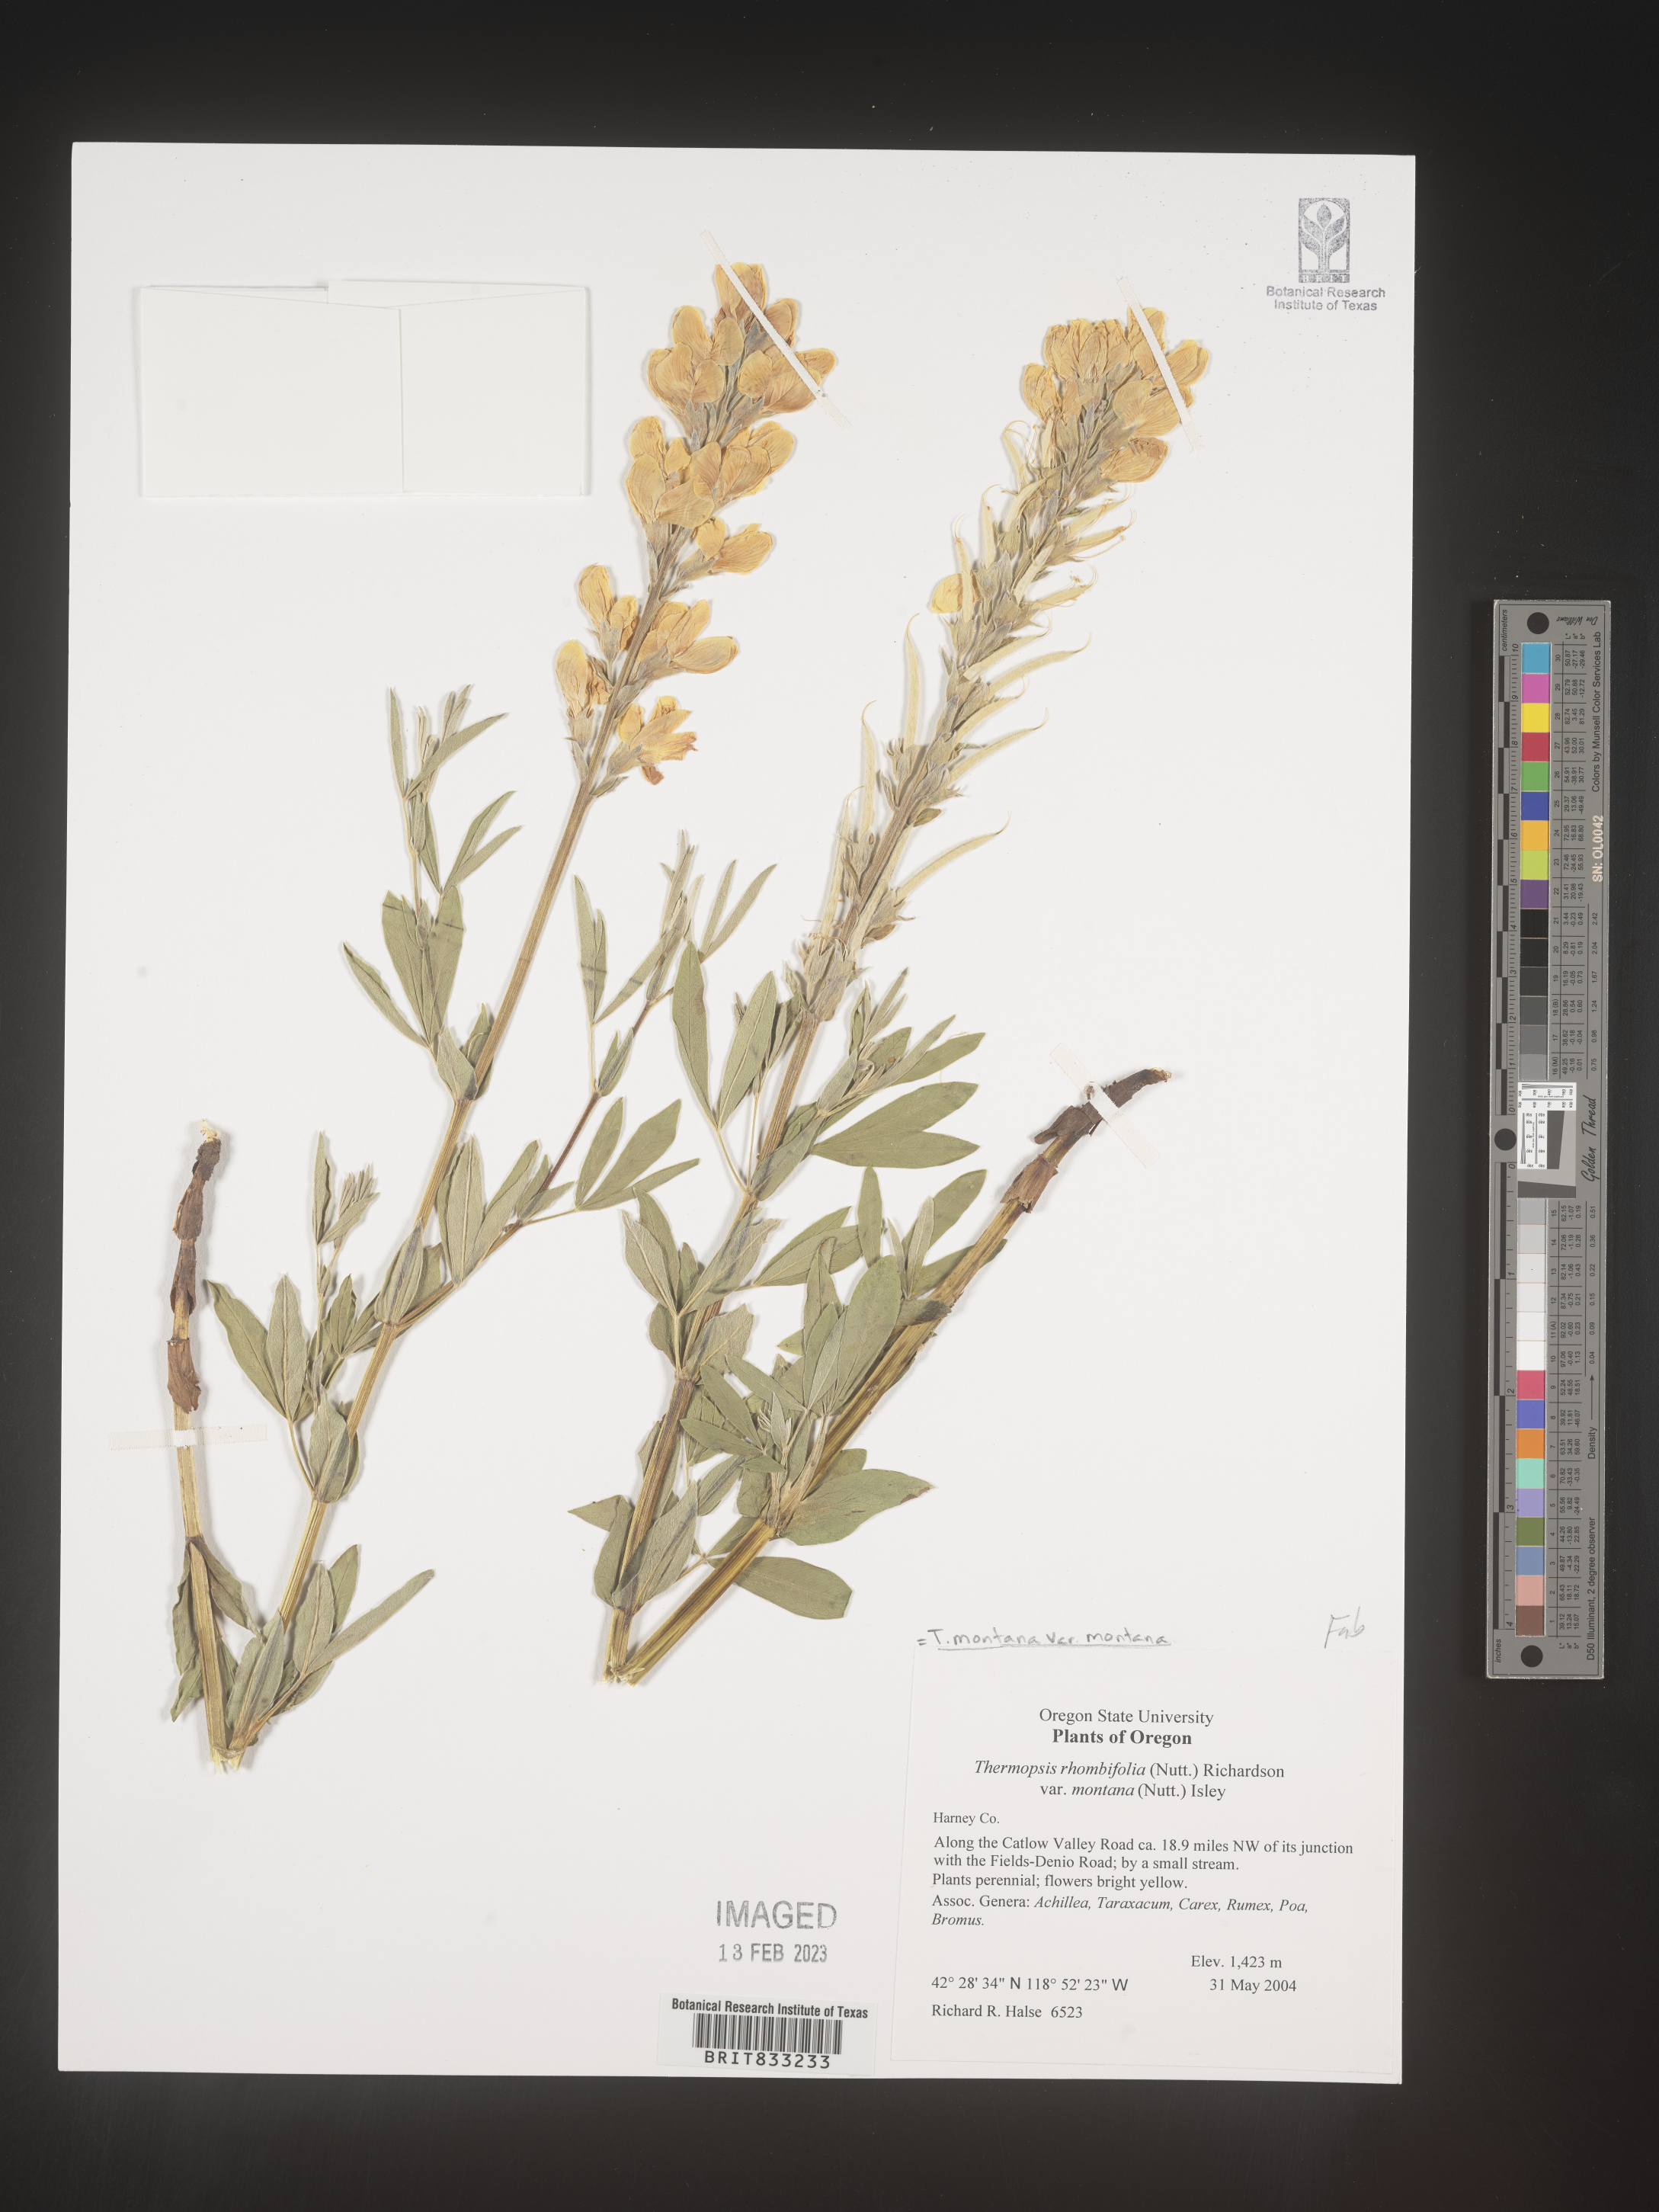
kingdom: Plantae
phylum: Tracheophyta
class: Magnoliopsida
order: Fabales
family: Fabaceae
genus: Thermopsis
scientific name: Thermopsis montana
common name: False lupin
